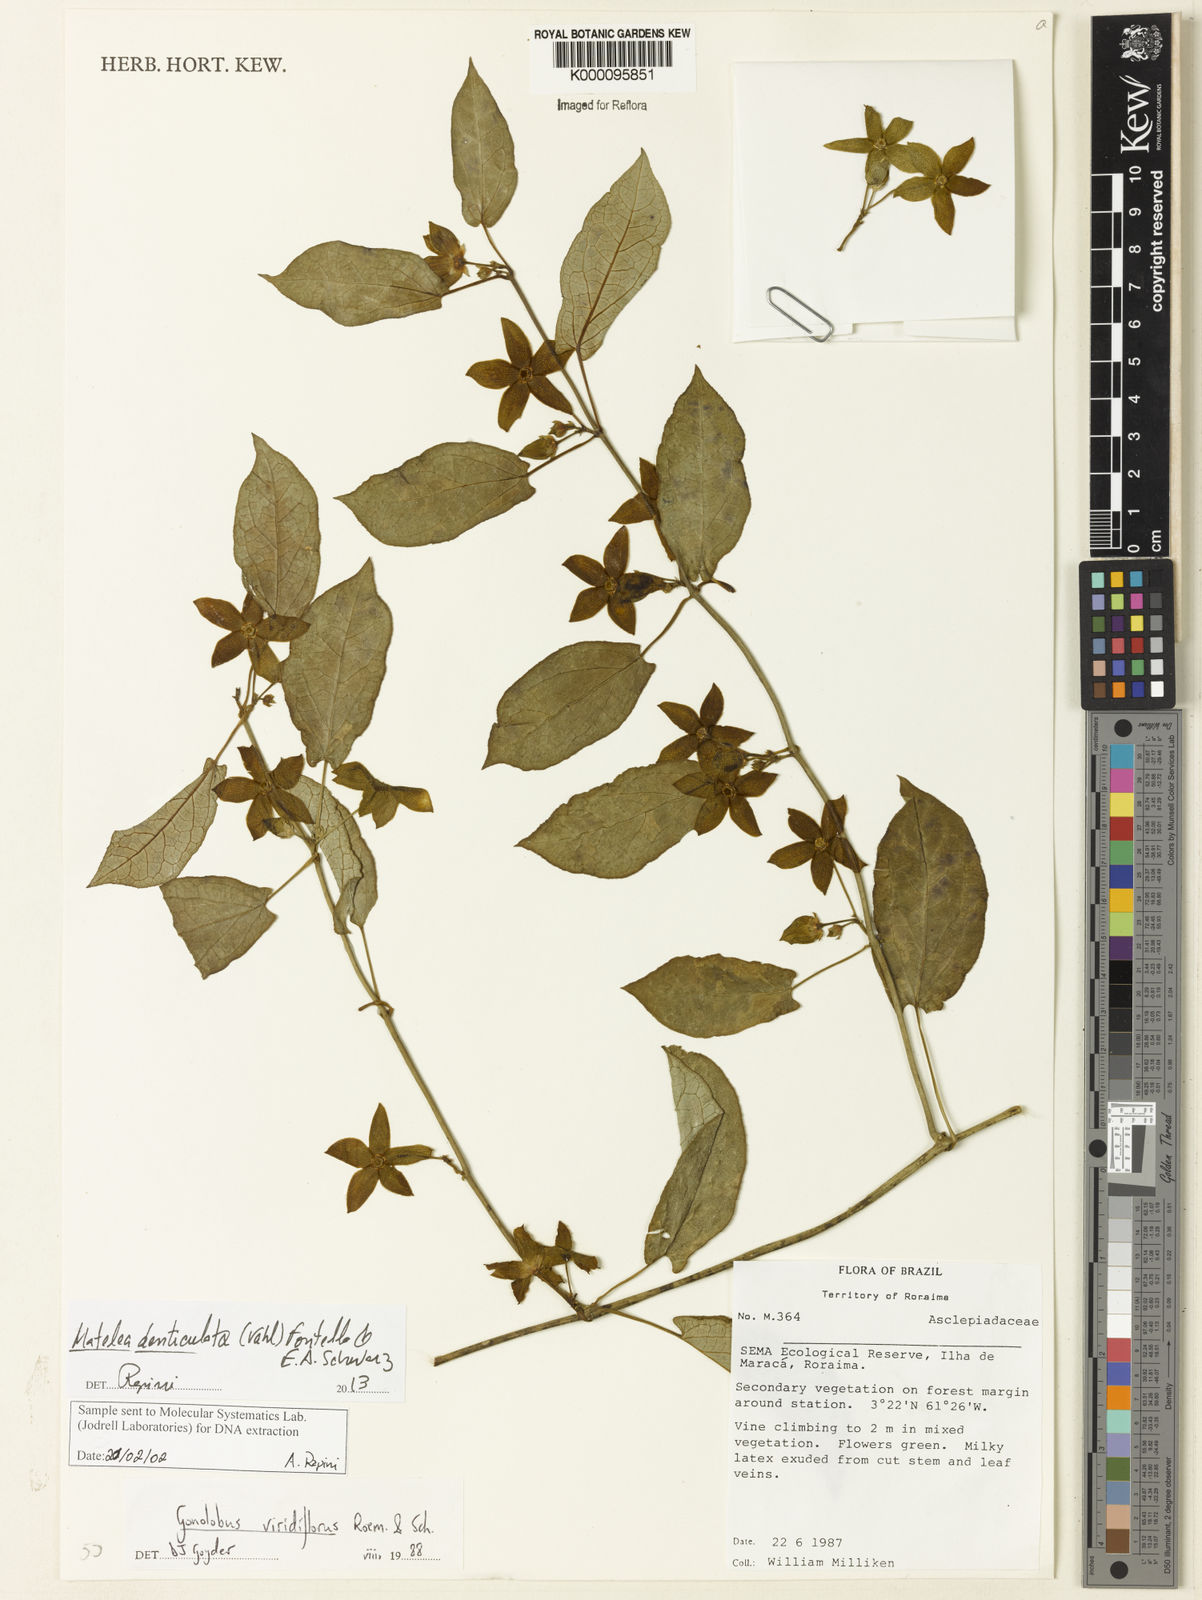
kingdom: Plantae
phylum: Tracheophyta
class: Magnoliopsida
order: Gentianales
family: Apocynaceae
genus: Chloropetalum
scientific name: Chloropetalum denticulatum
